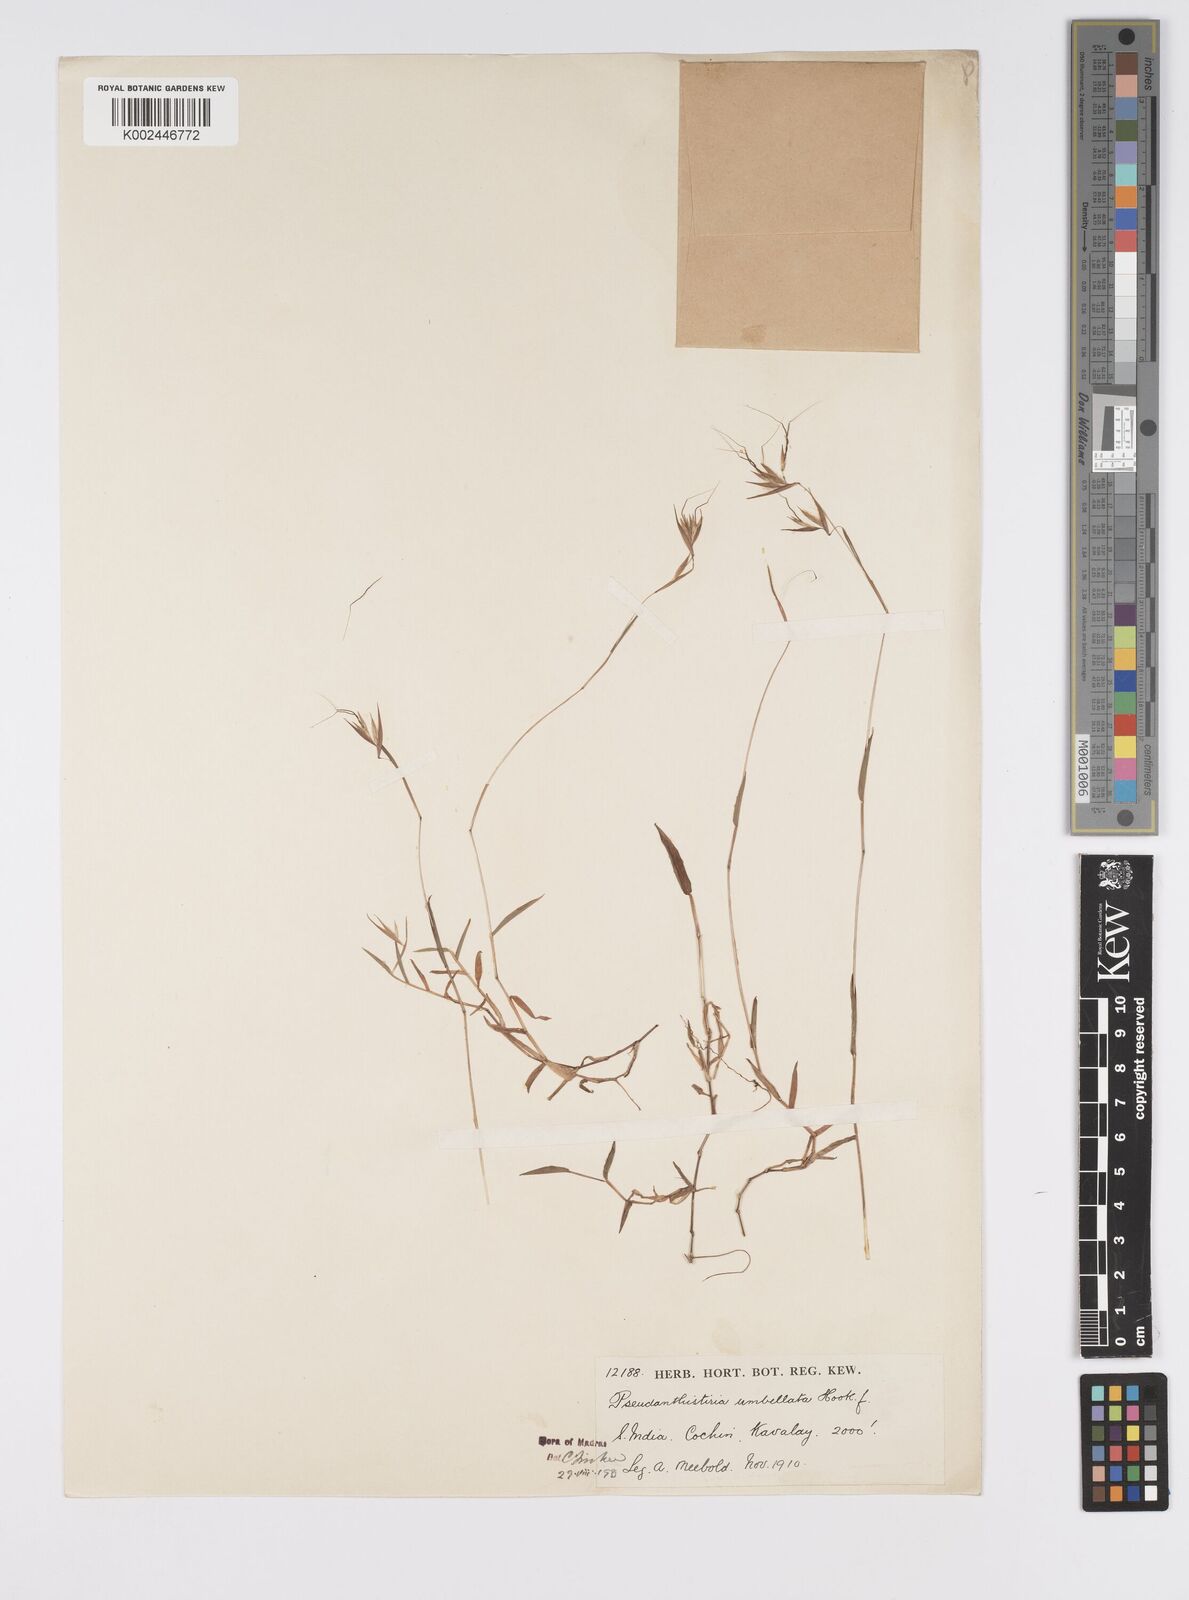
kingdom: Plantae
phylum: Tracheophyta
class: Liliopsida
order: Poales
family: Poaceae
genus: Pseudanthistiria
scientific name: Pseudanthistiria umbellata
